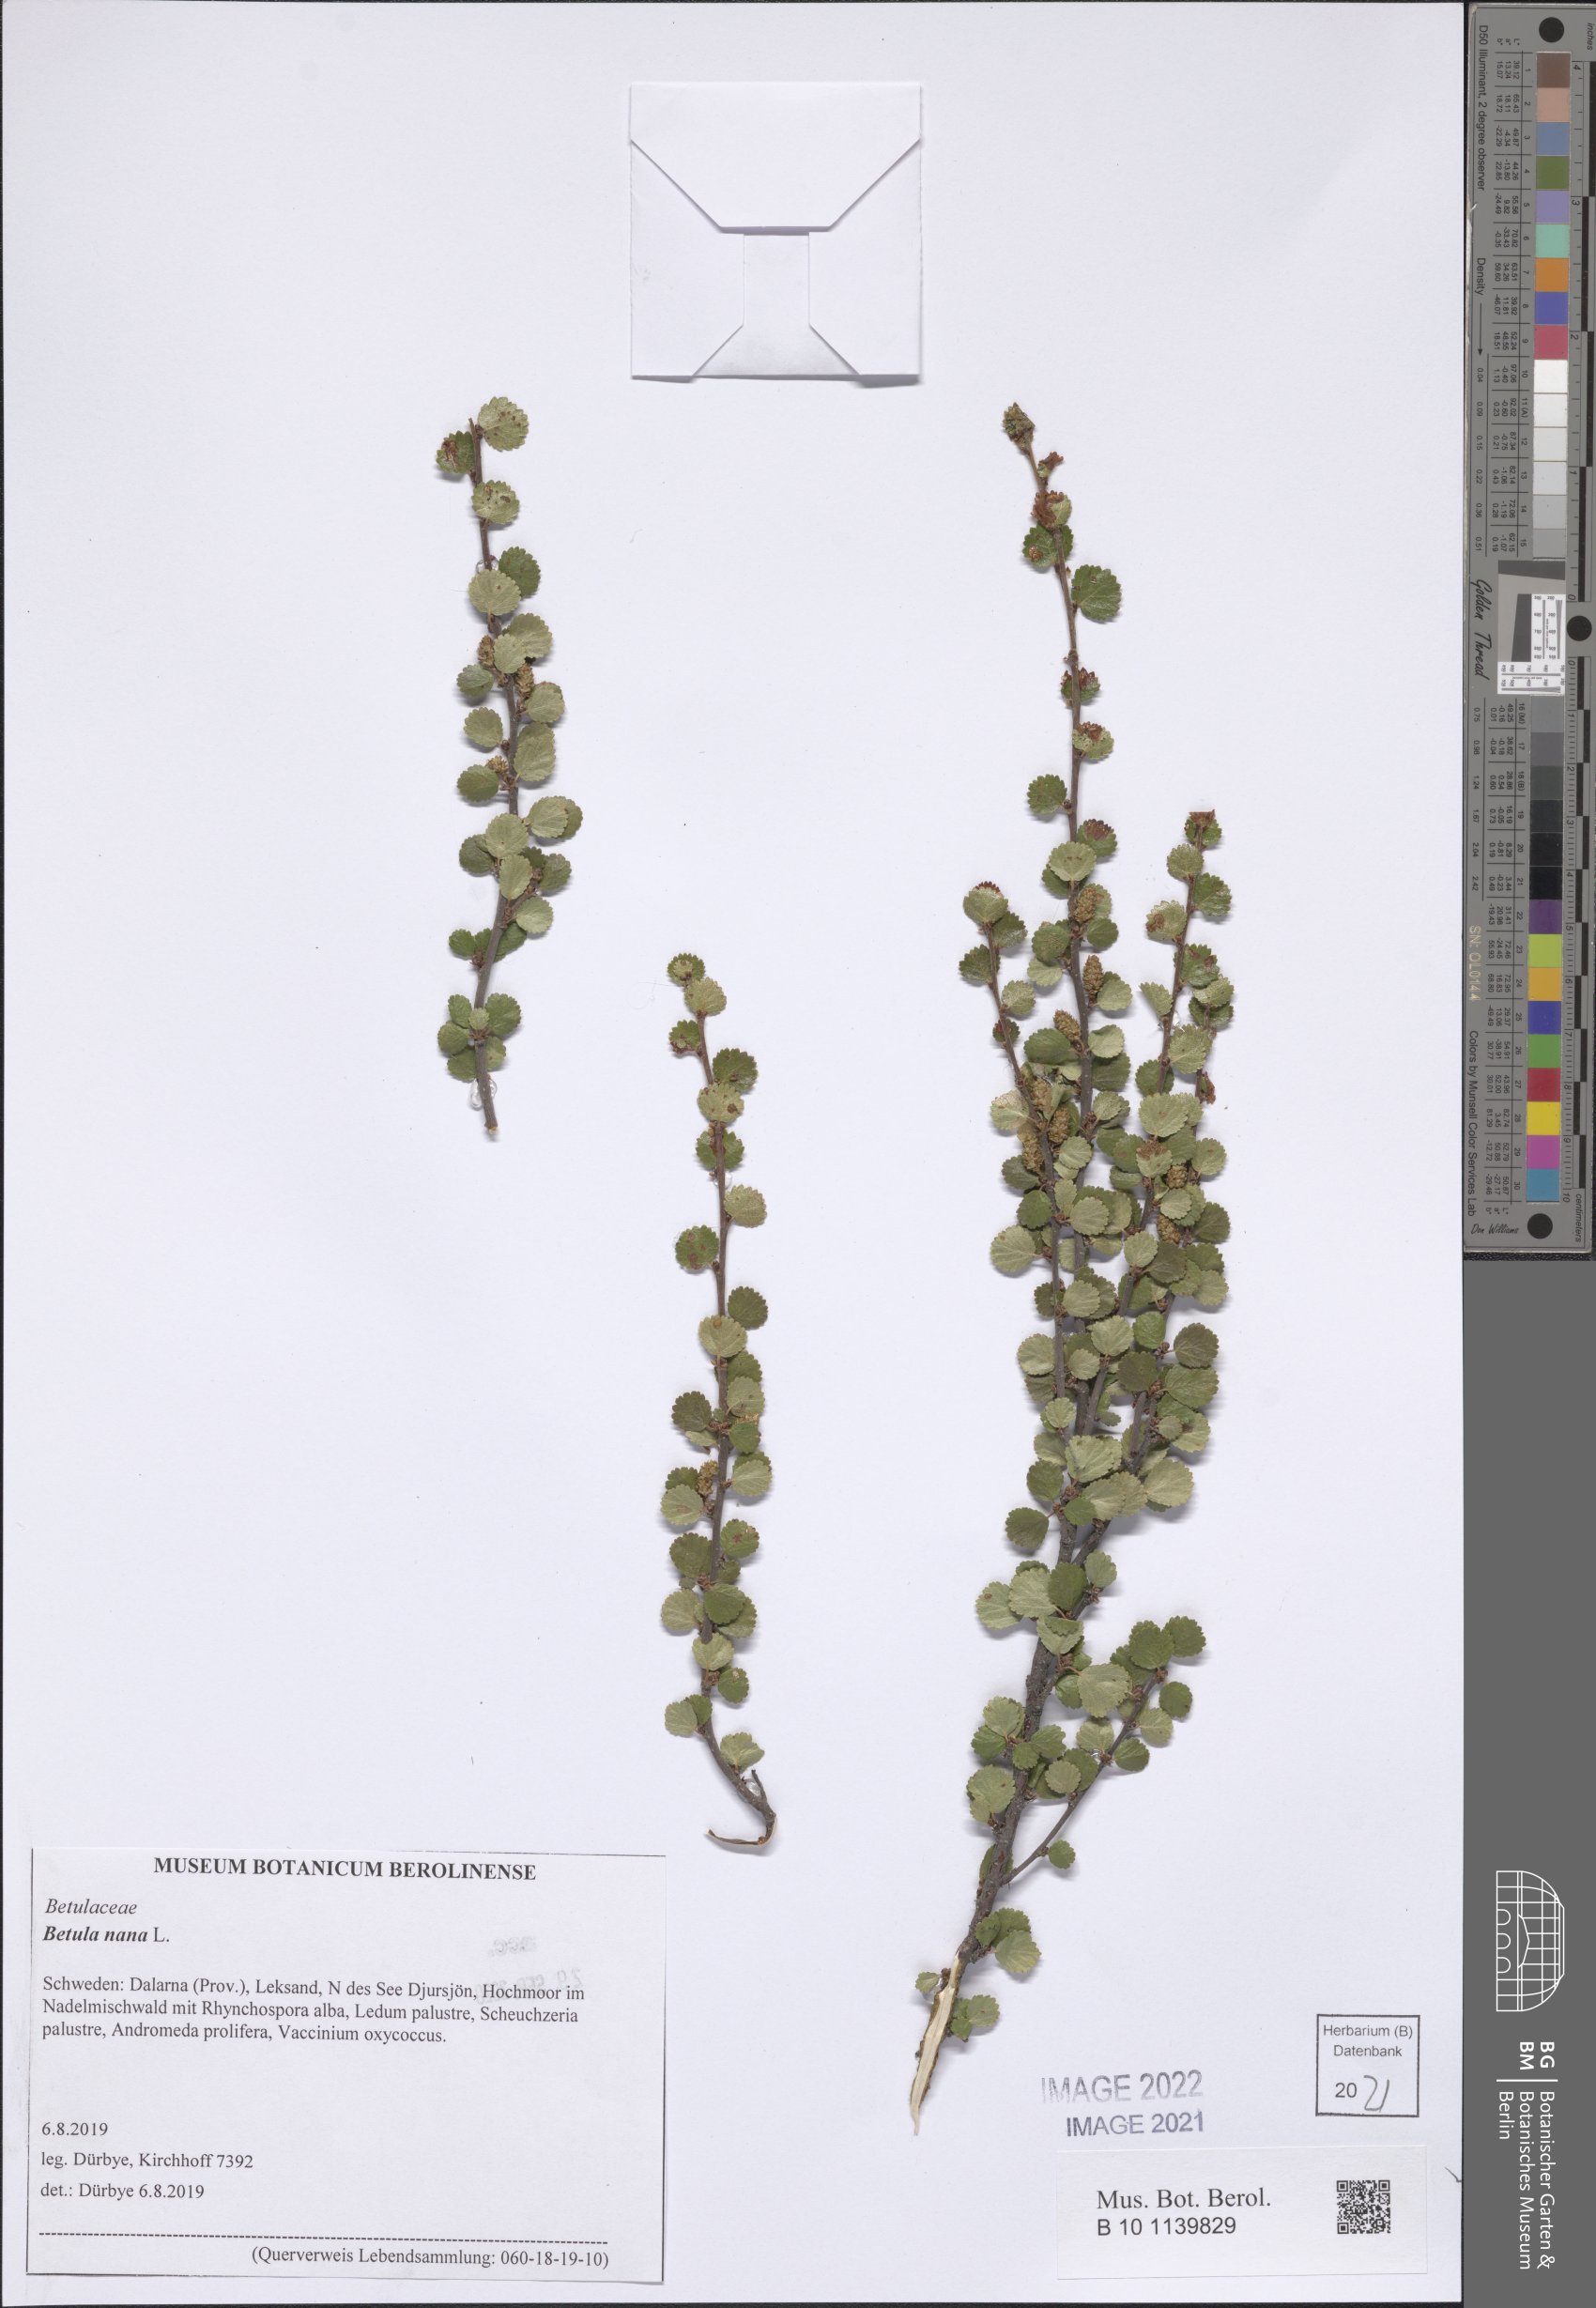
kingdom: Plantae
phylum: Tracheophyta
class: Magnoliopsida
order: Fagales
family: Betulaceae
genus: Betula
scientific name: Betula nana
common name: Arctic dwarf birch
